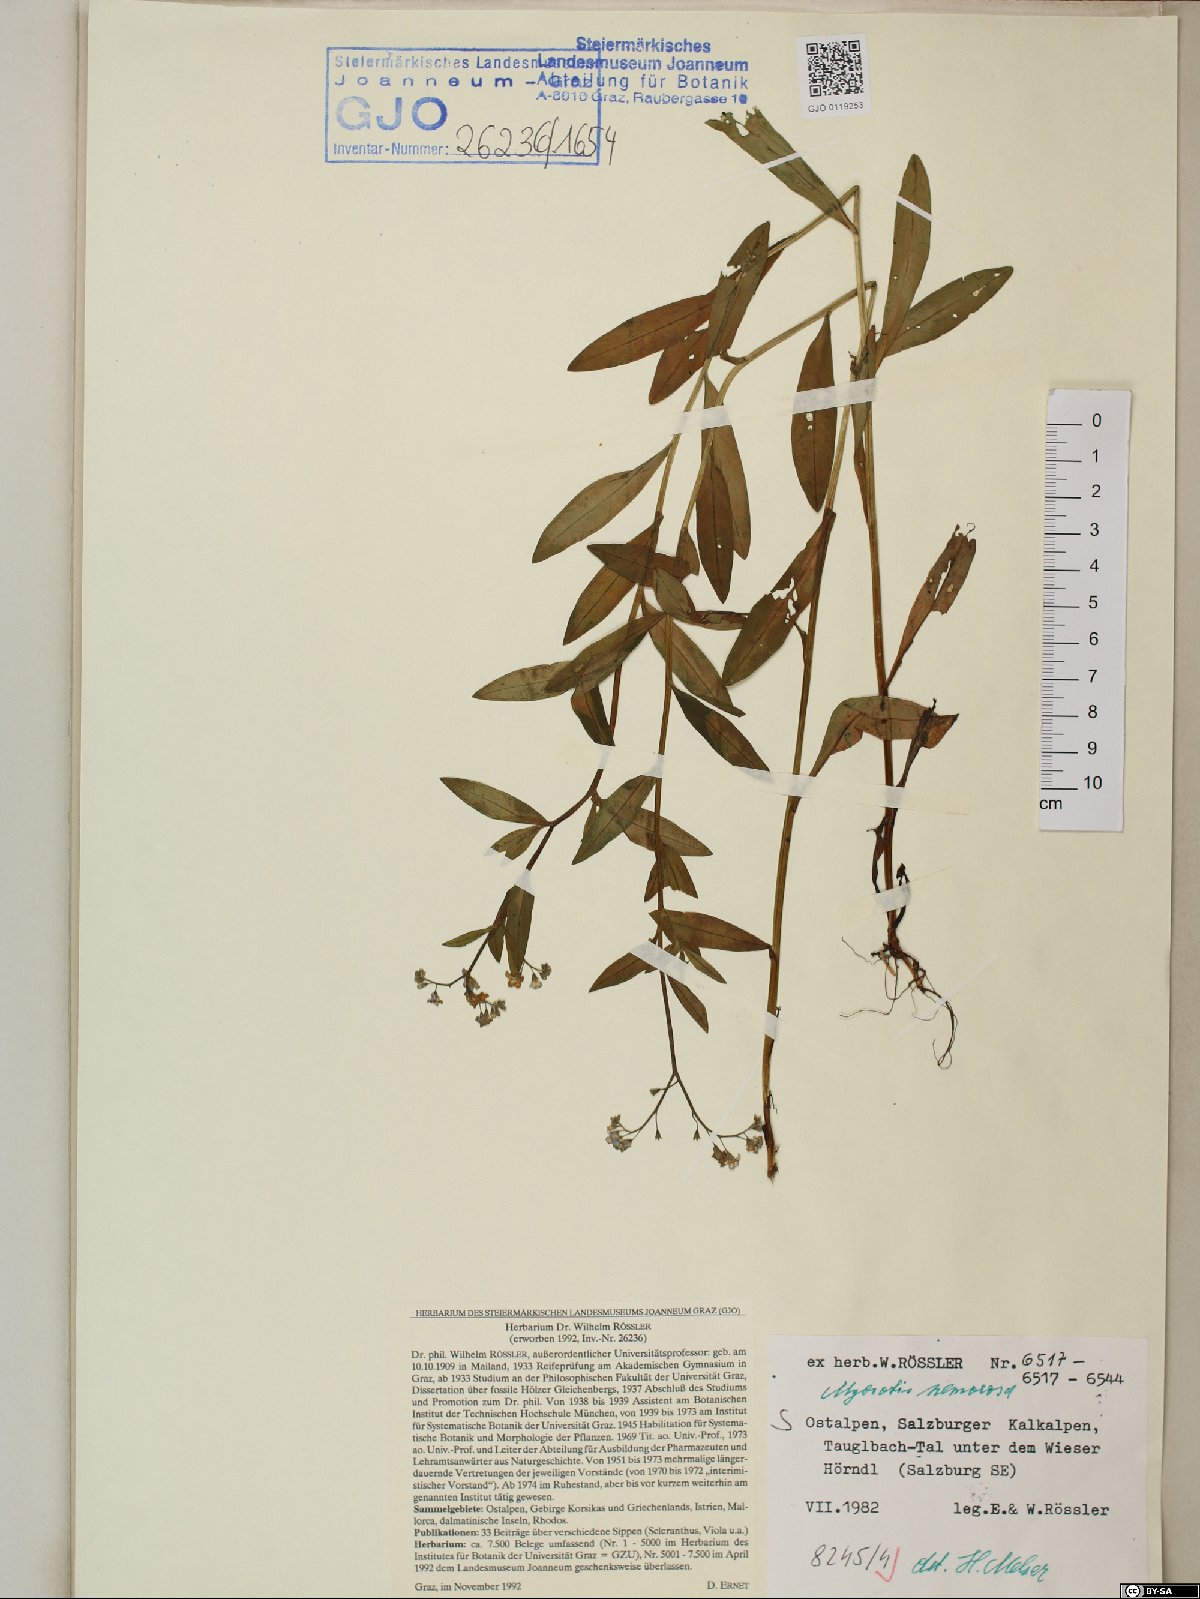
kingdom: Plantae
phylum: Tracheophyta
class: Magnoliopsida
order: Boraginales
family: Boraginaceae
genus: Myosotis
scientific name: Myosotis nemorosa
